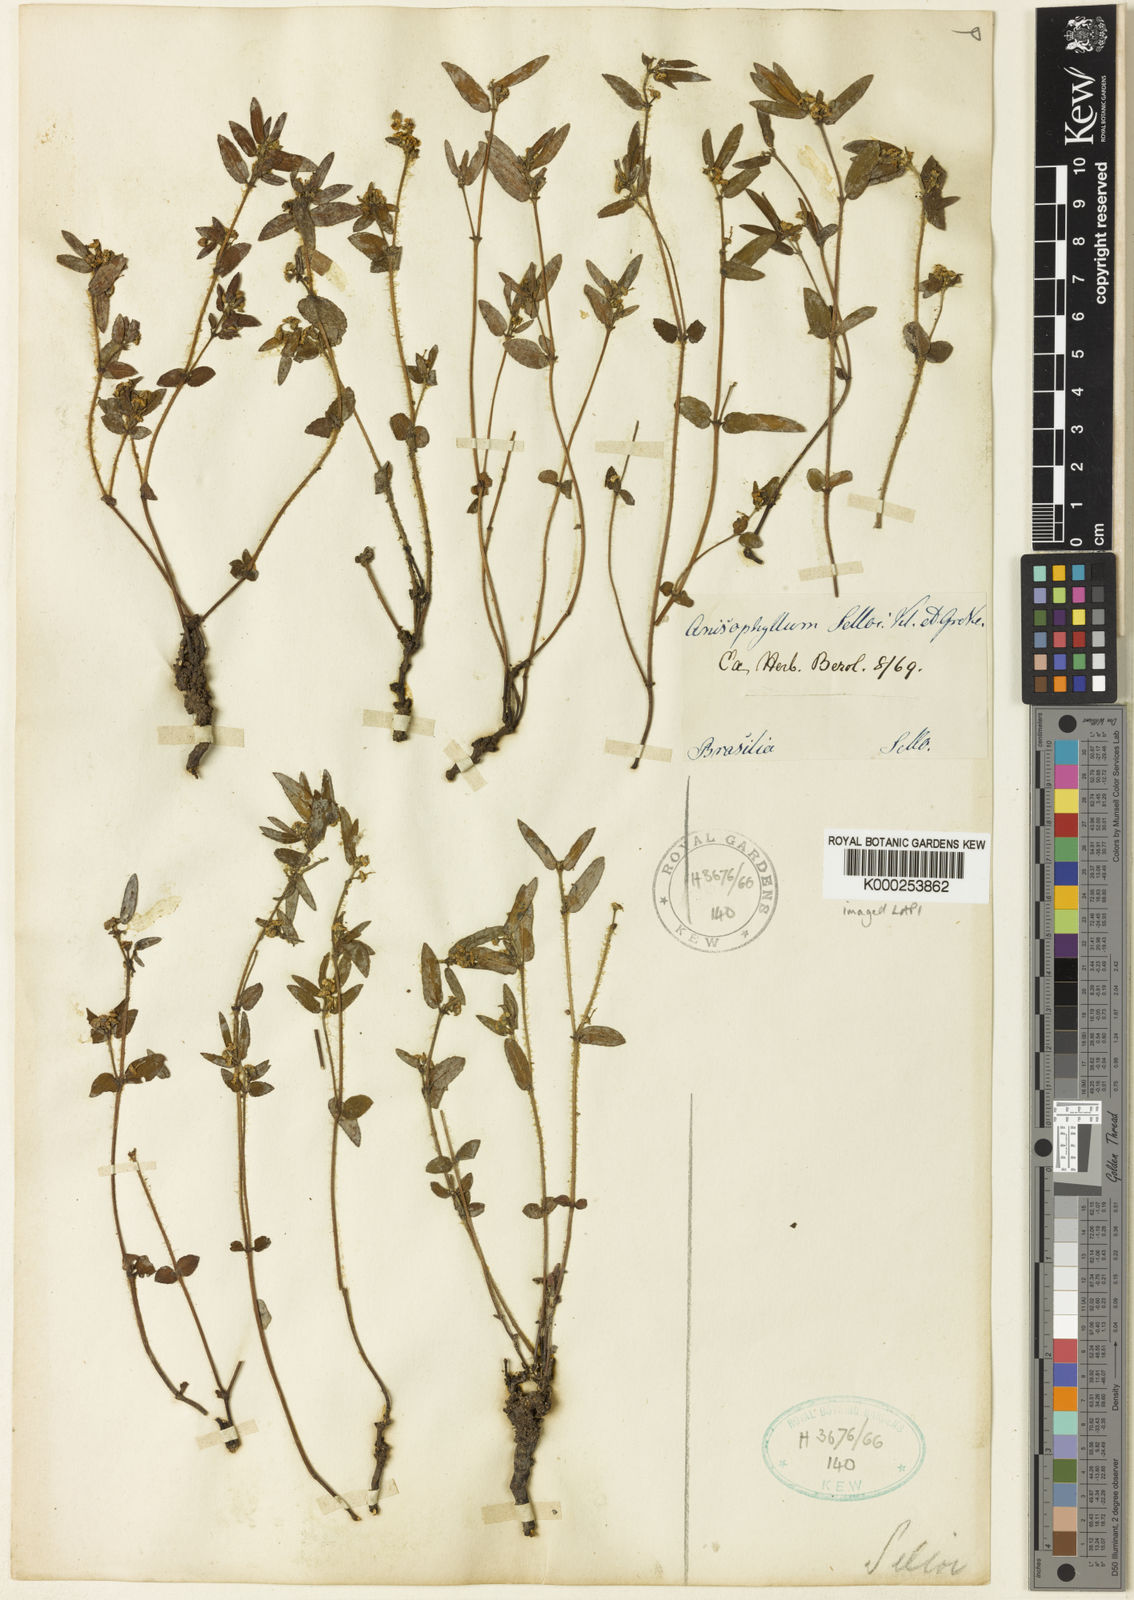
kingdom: Plantae
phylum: Tracheophyta
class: Magnoliopsida
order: Malpighiales
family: Euphorbiaceae
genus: Euphorbia
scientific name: Euphorbia selloi
